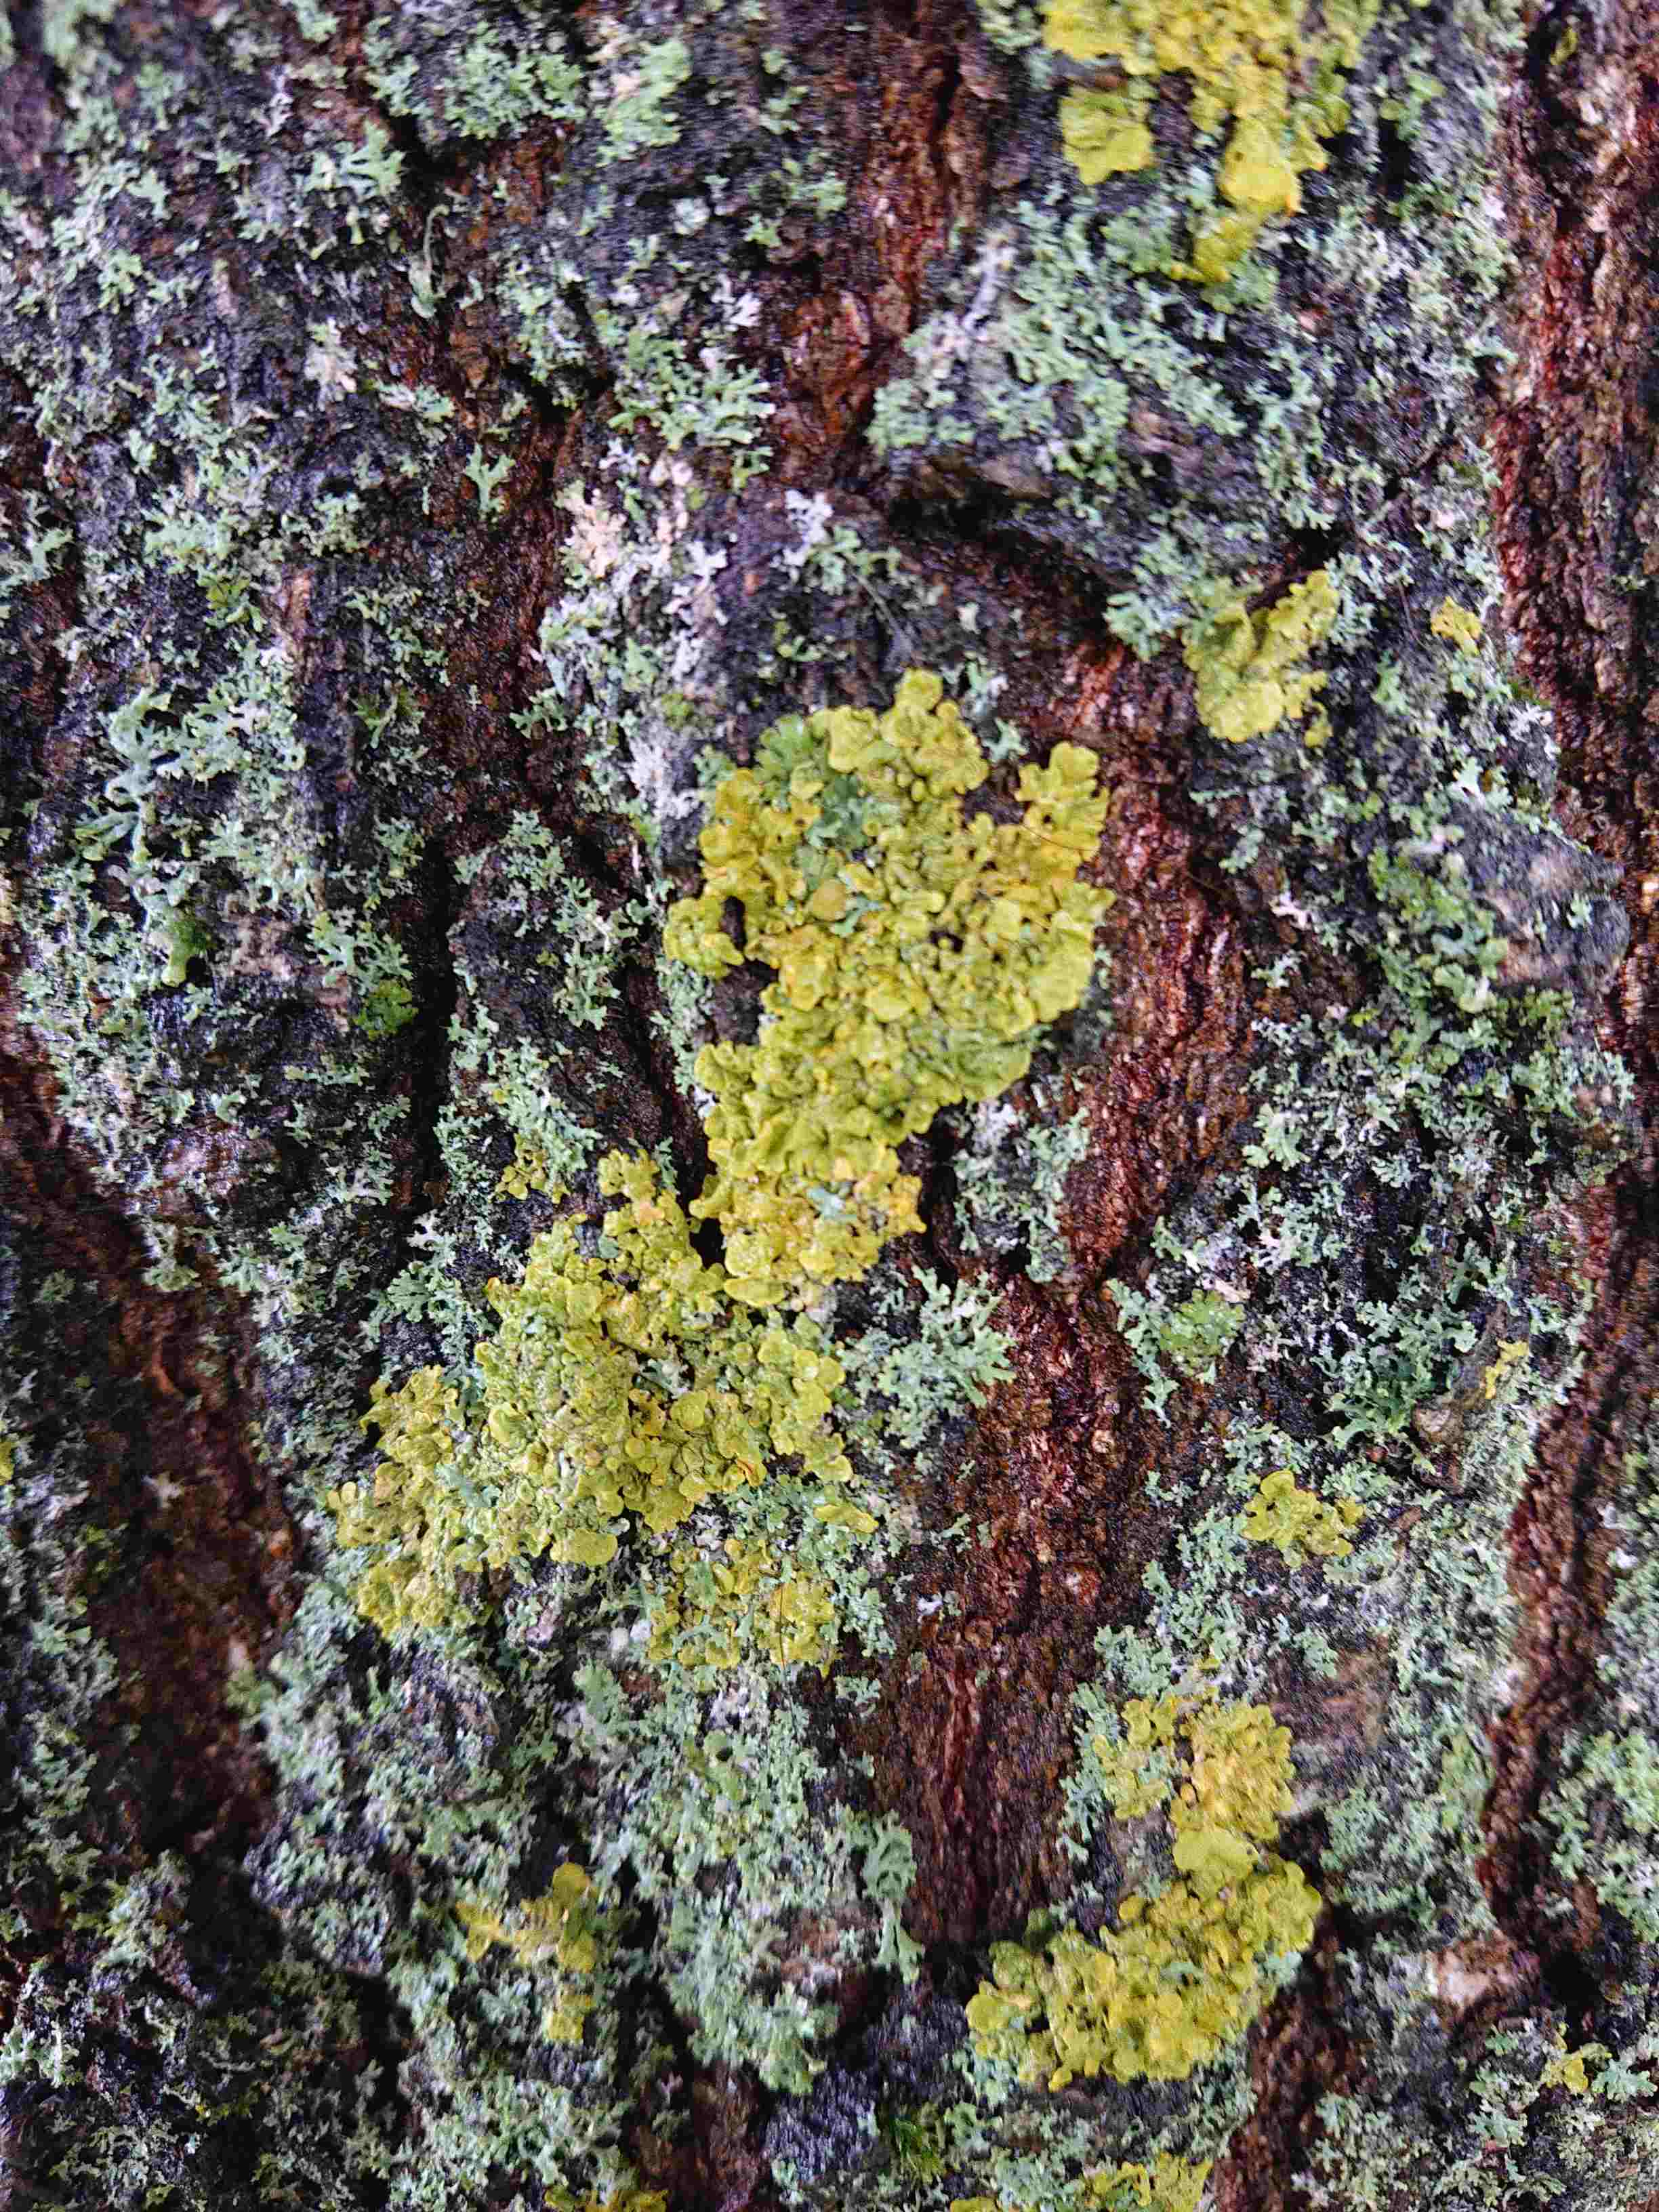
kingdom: Fungi
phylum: Ascomycota
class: Lecanoromycetes
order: Teloschistales
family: Teloschistaceae
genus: Xanthoria
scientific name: Xanthoria parietina
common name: almindelig væggelav
